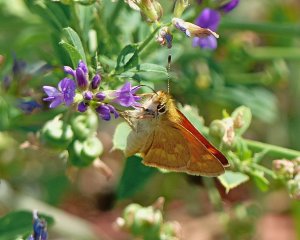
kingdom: Animalia
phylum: Arthropoda
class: Insecta
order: Lepidoptera
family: Hesperiidae
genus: Ochlodes
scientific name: Ochlodes sylvanoides
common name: Woodland Skipper
